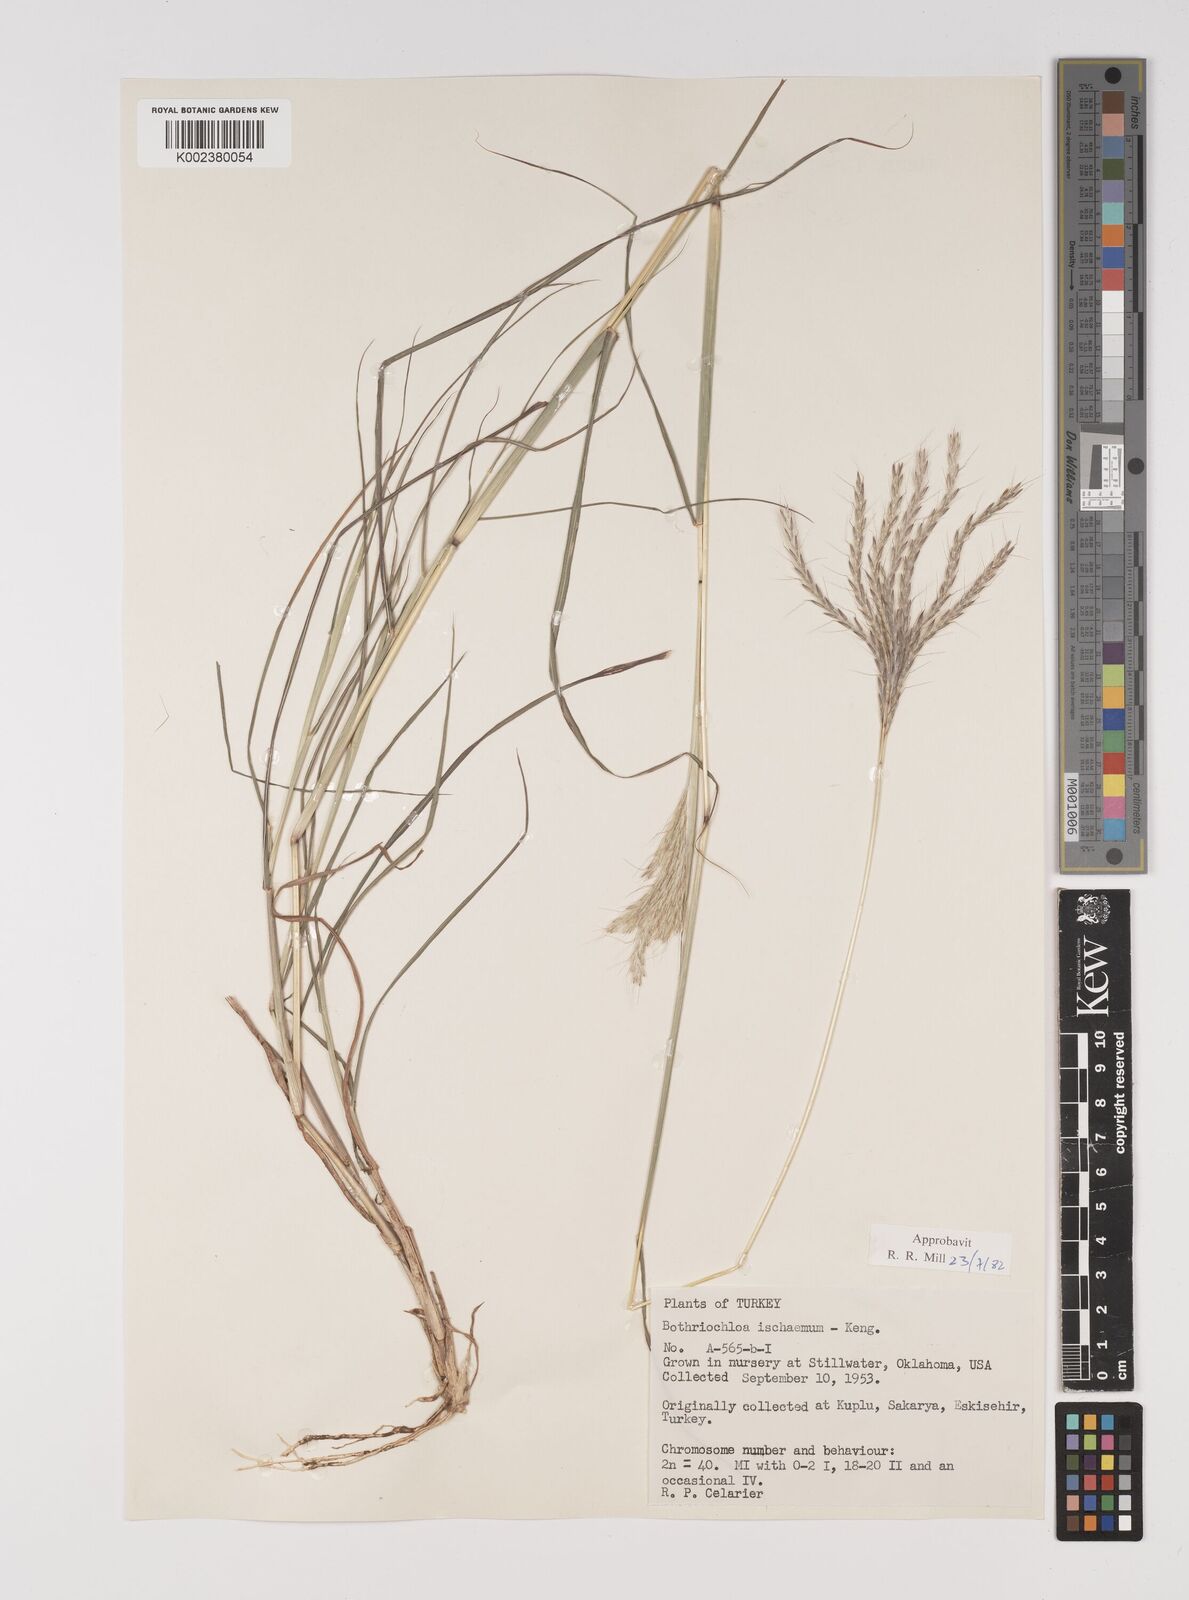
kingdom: Plantae
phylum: Tracheophyta
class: Liliopsida
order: Poales
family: Poaceae
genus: Bothriochloa
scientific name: Bothriochloa ischaemum
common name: Yellow bluestem
